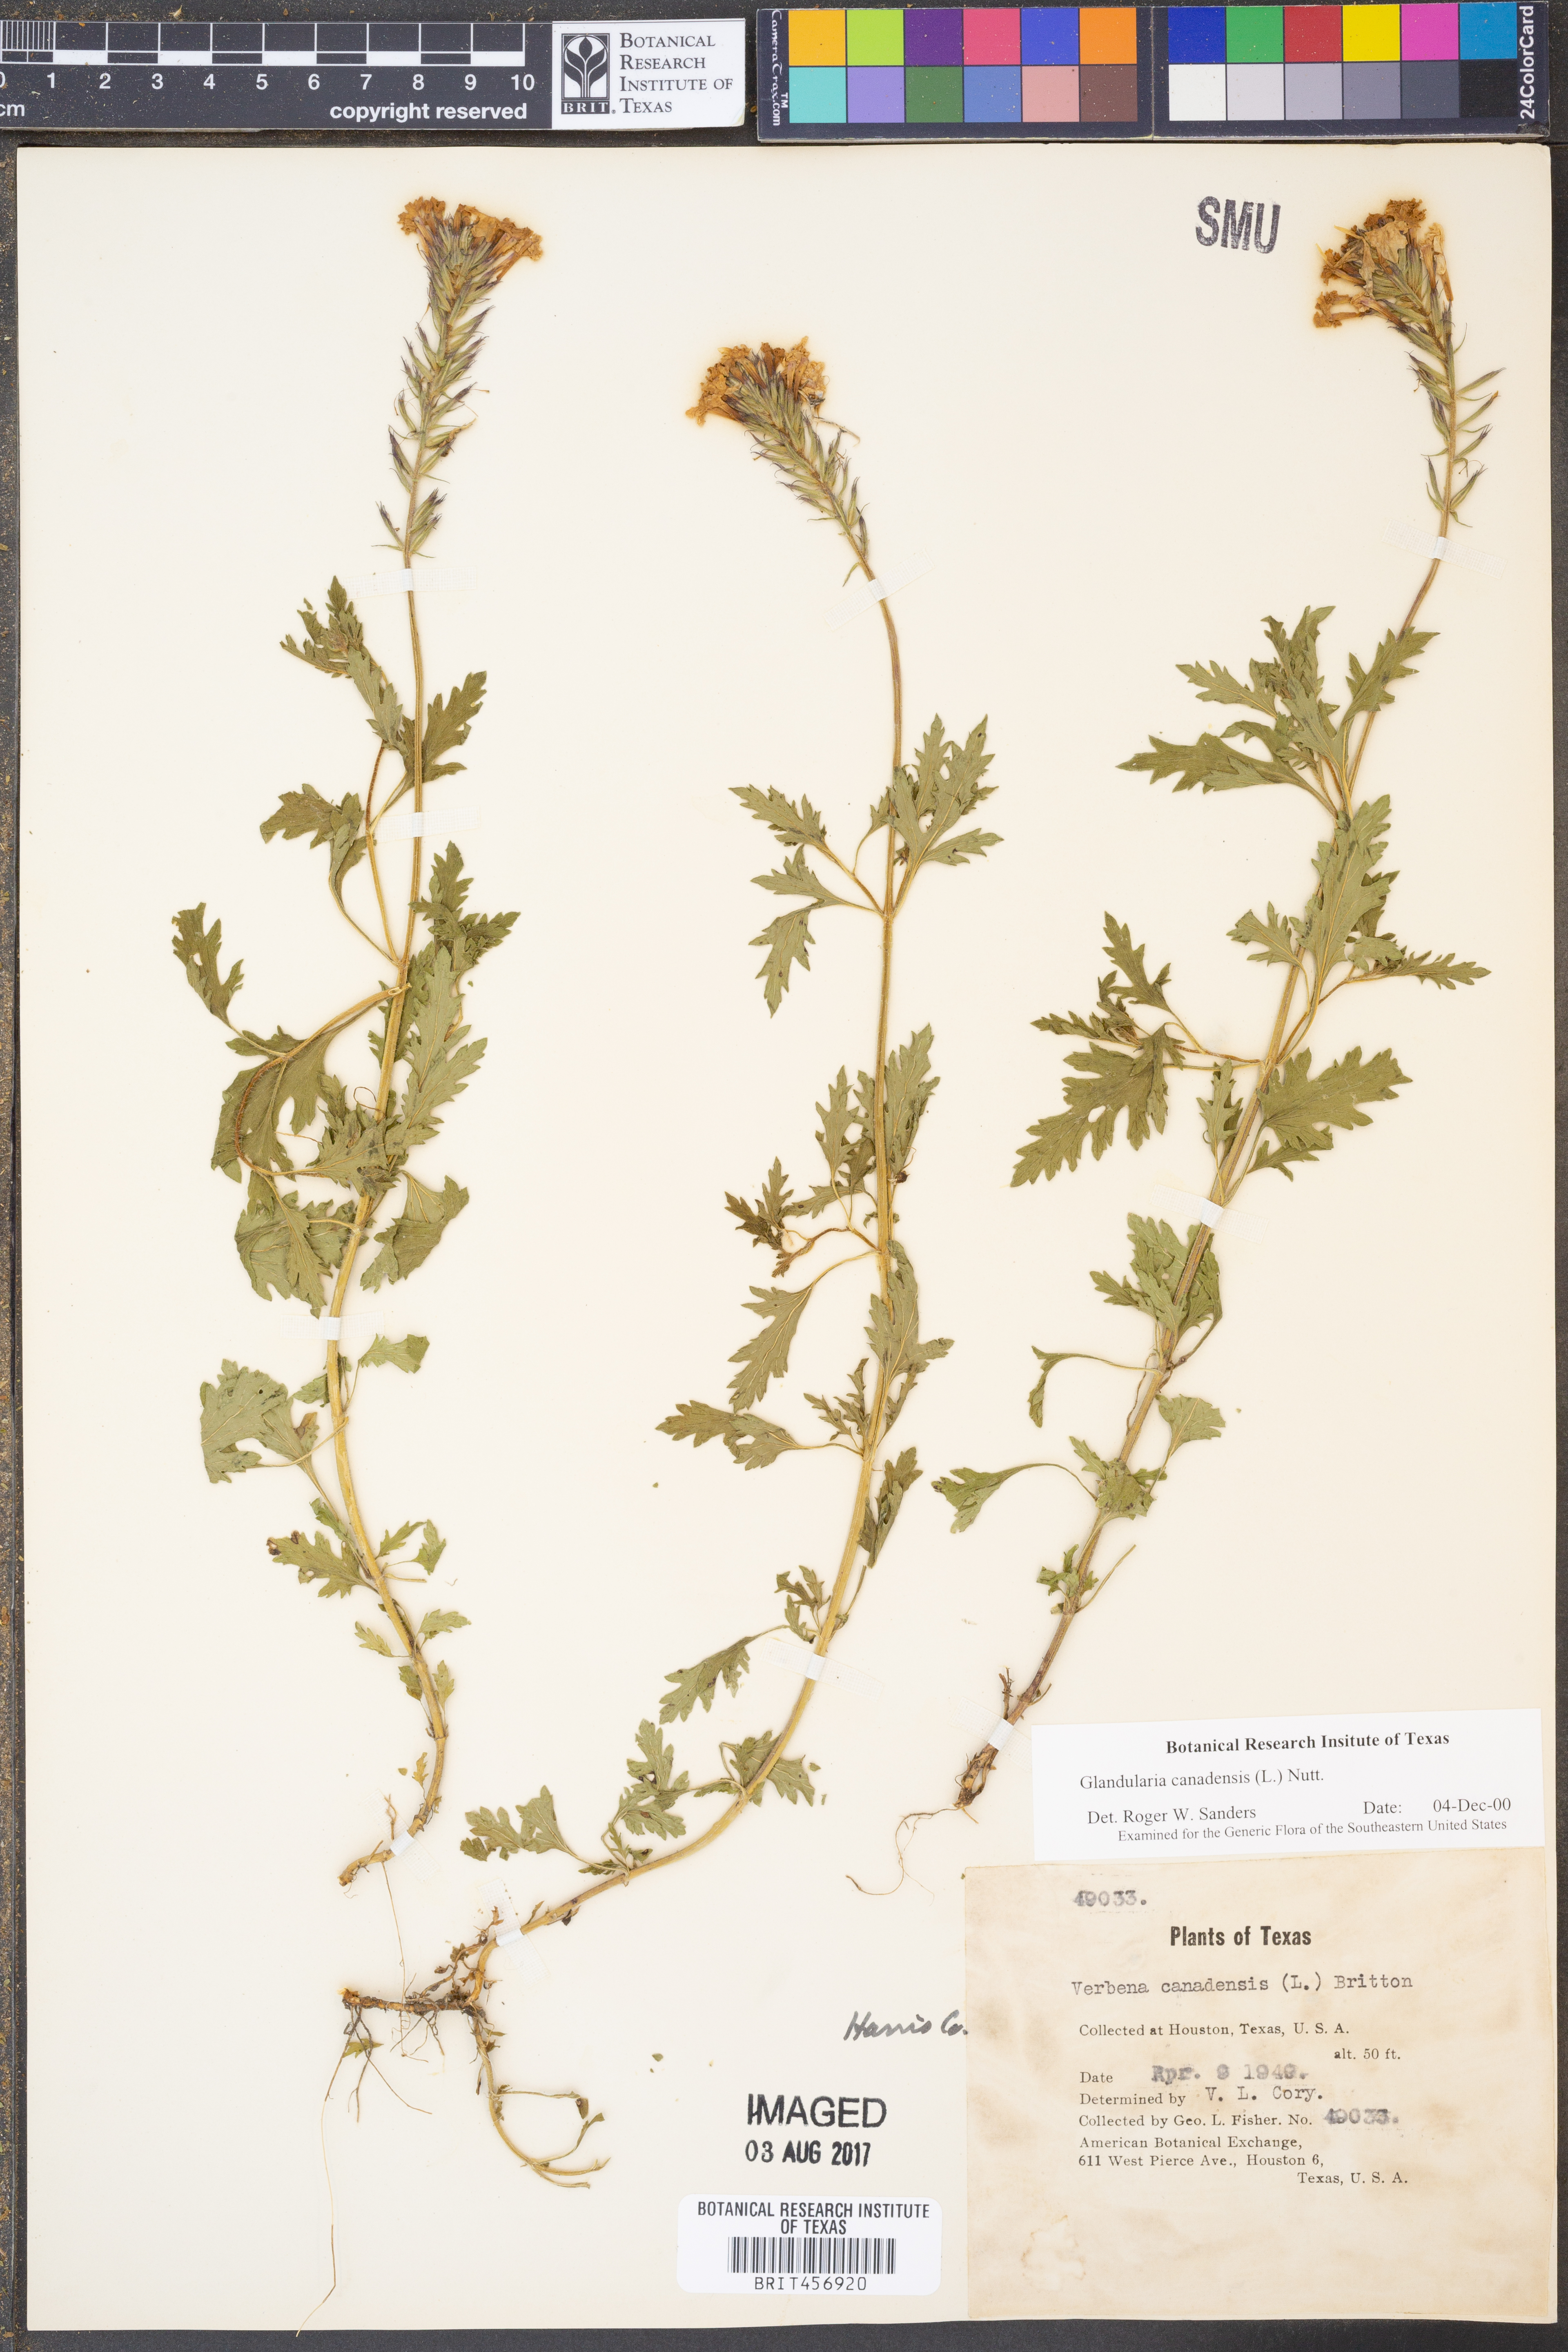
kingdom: Plantae
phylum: Tracheophyta
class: Magnoliopsida
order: Lamiales
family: Verbenaceae
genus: Verbena
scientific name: Verbena canadensis
